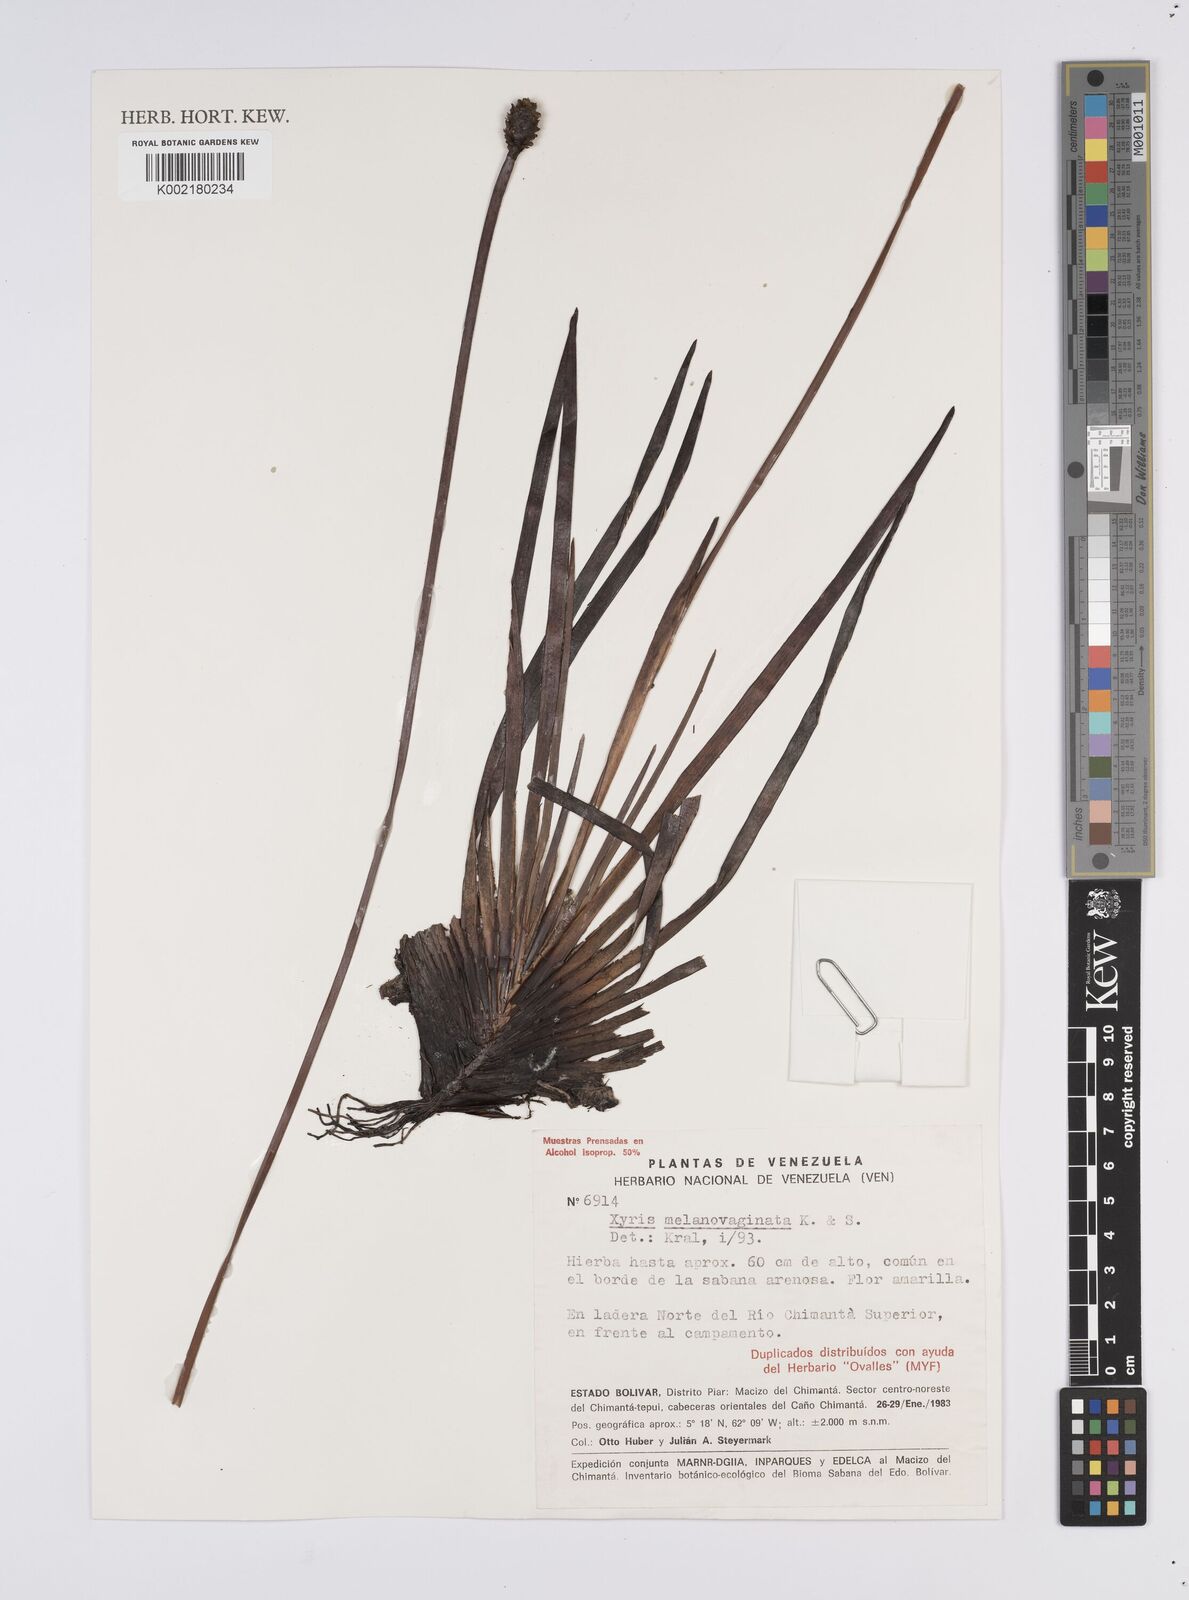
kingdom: Plantae
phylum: Tracheophyta
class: Liliopsida
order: Poales
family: Xyridaceae
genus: Xyris
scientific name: Xyris melanovaginata
